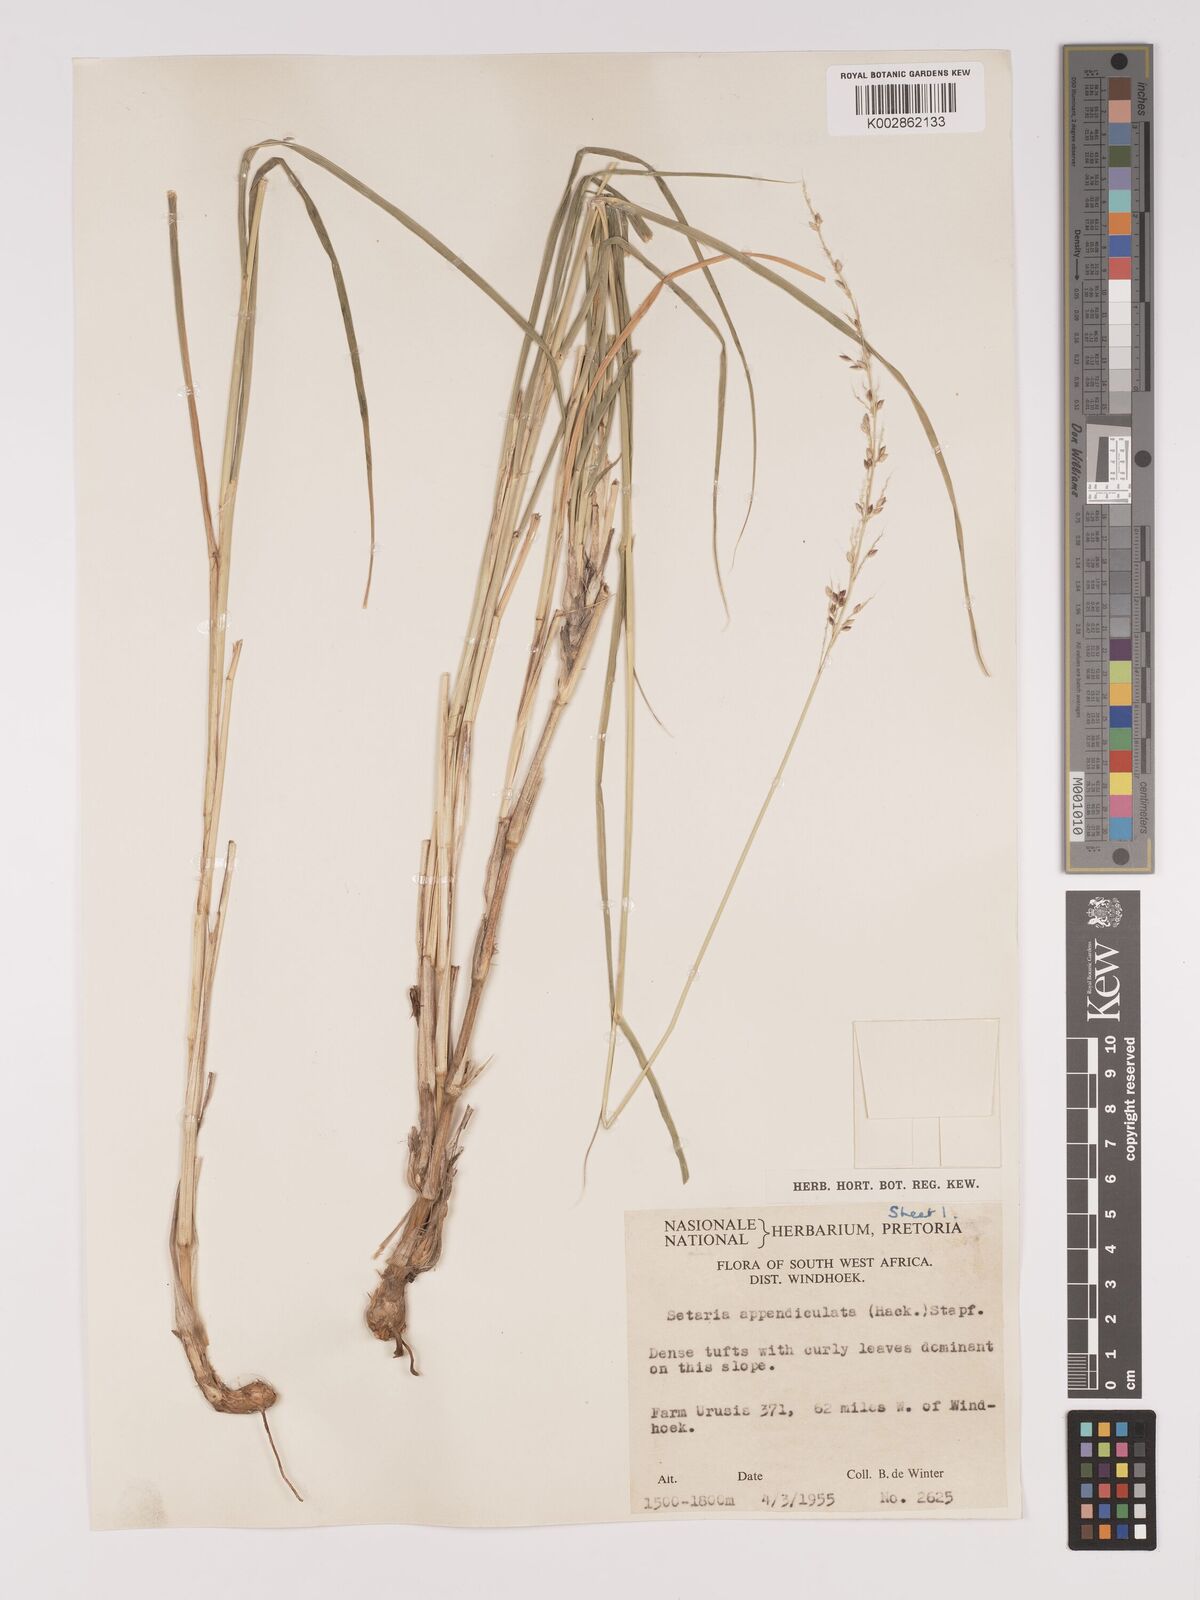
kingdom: Plantae
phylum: Tracheophyta
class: Liliopsida
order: Poales
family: Poaceae
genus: Setaria
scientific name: Setaria appendiculata
